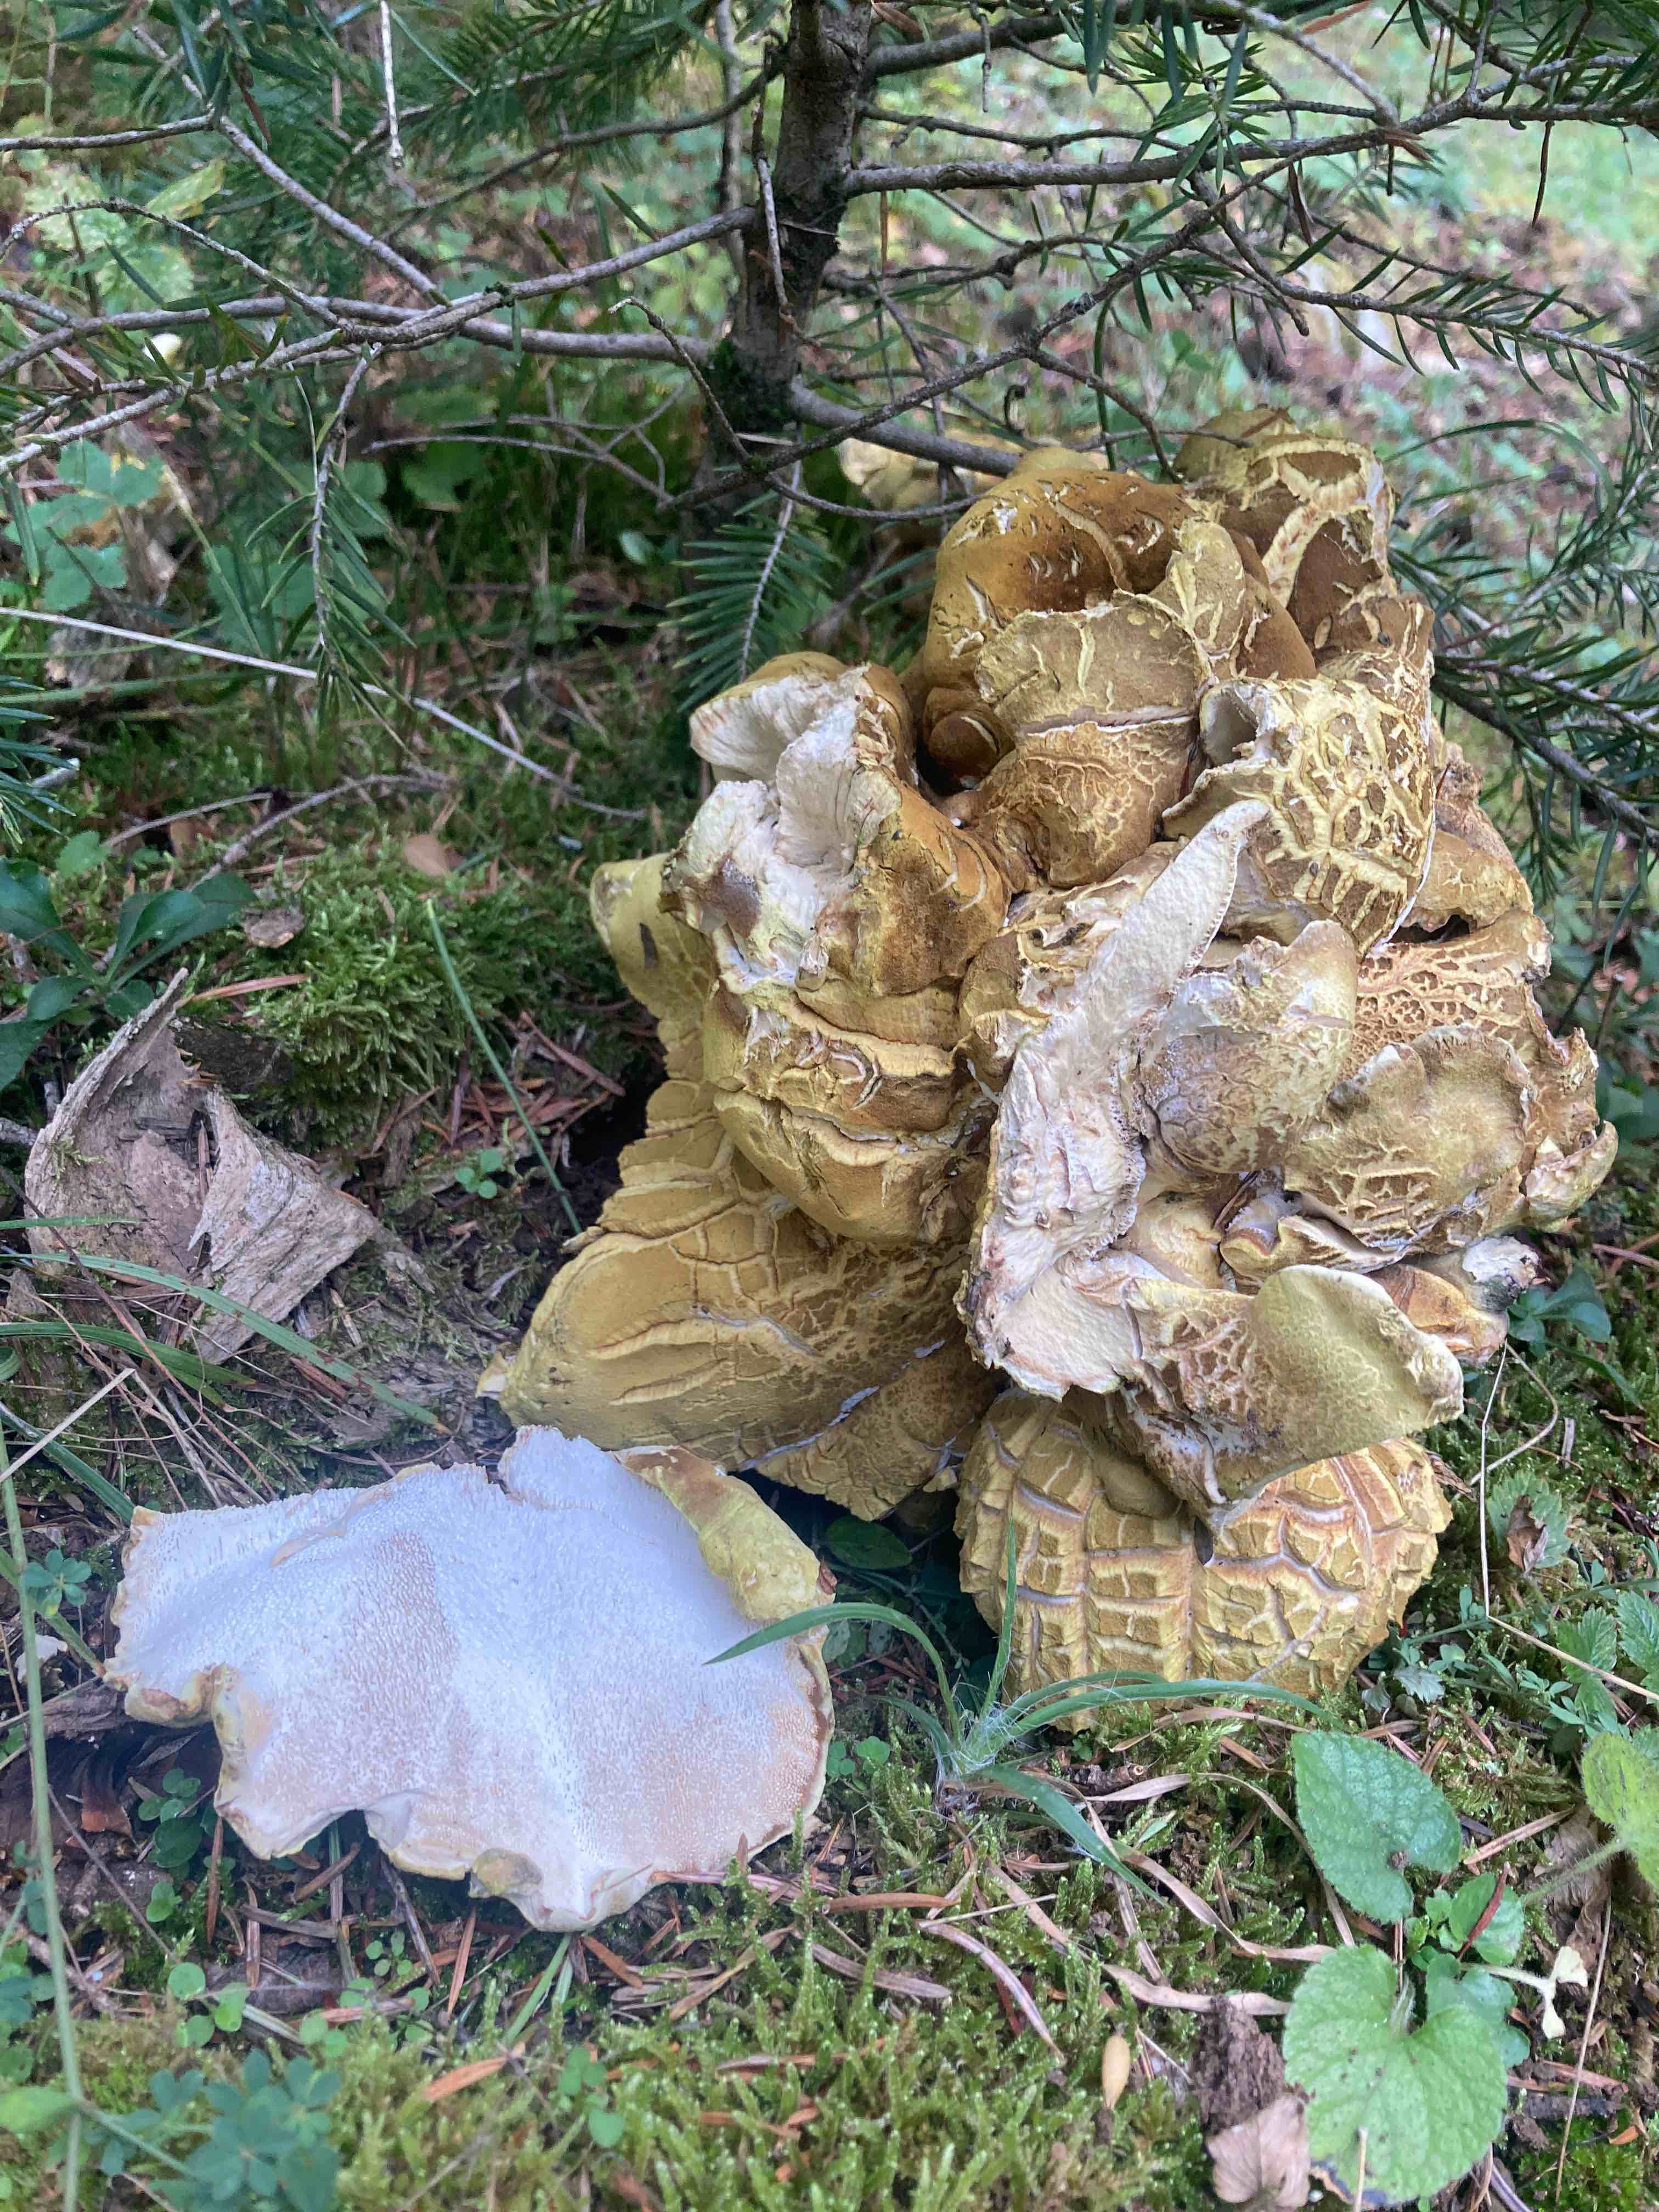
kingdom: Fungi
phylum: Basidiomycota
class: Agaricomycetes
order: Russulales
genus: Laeticutis
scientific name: Laeticutis cristata
